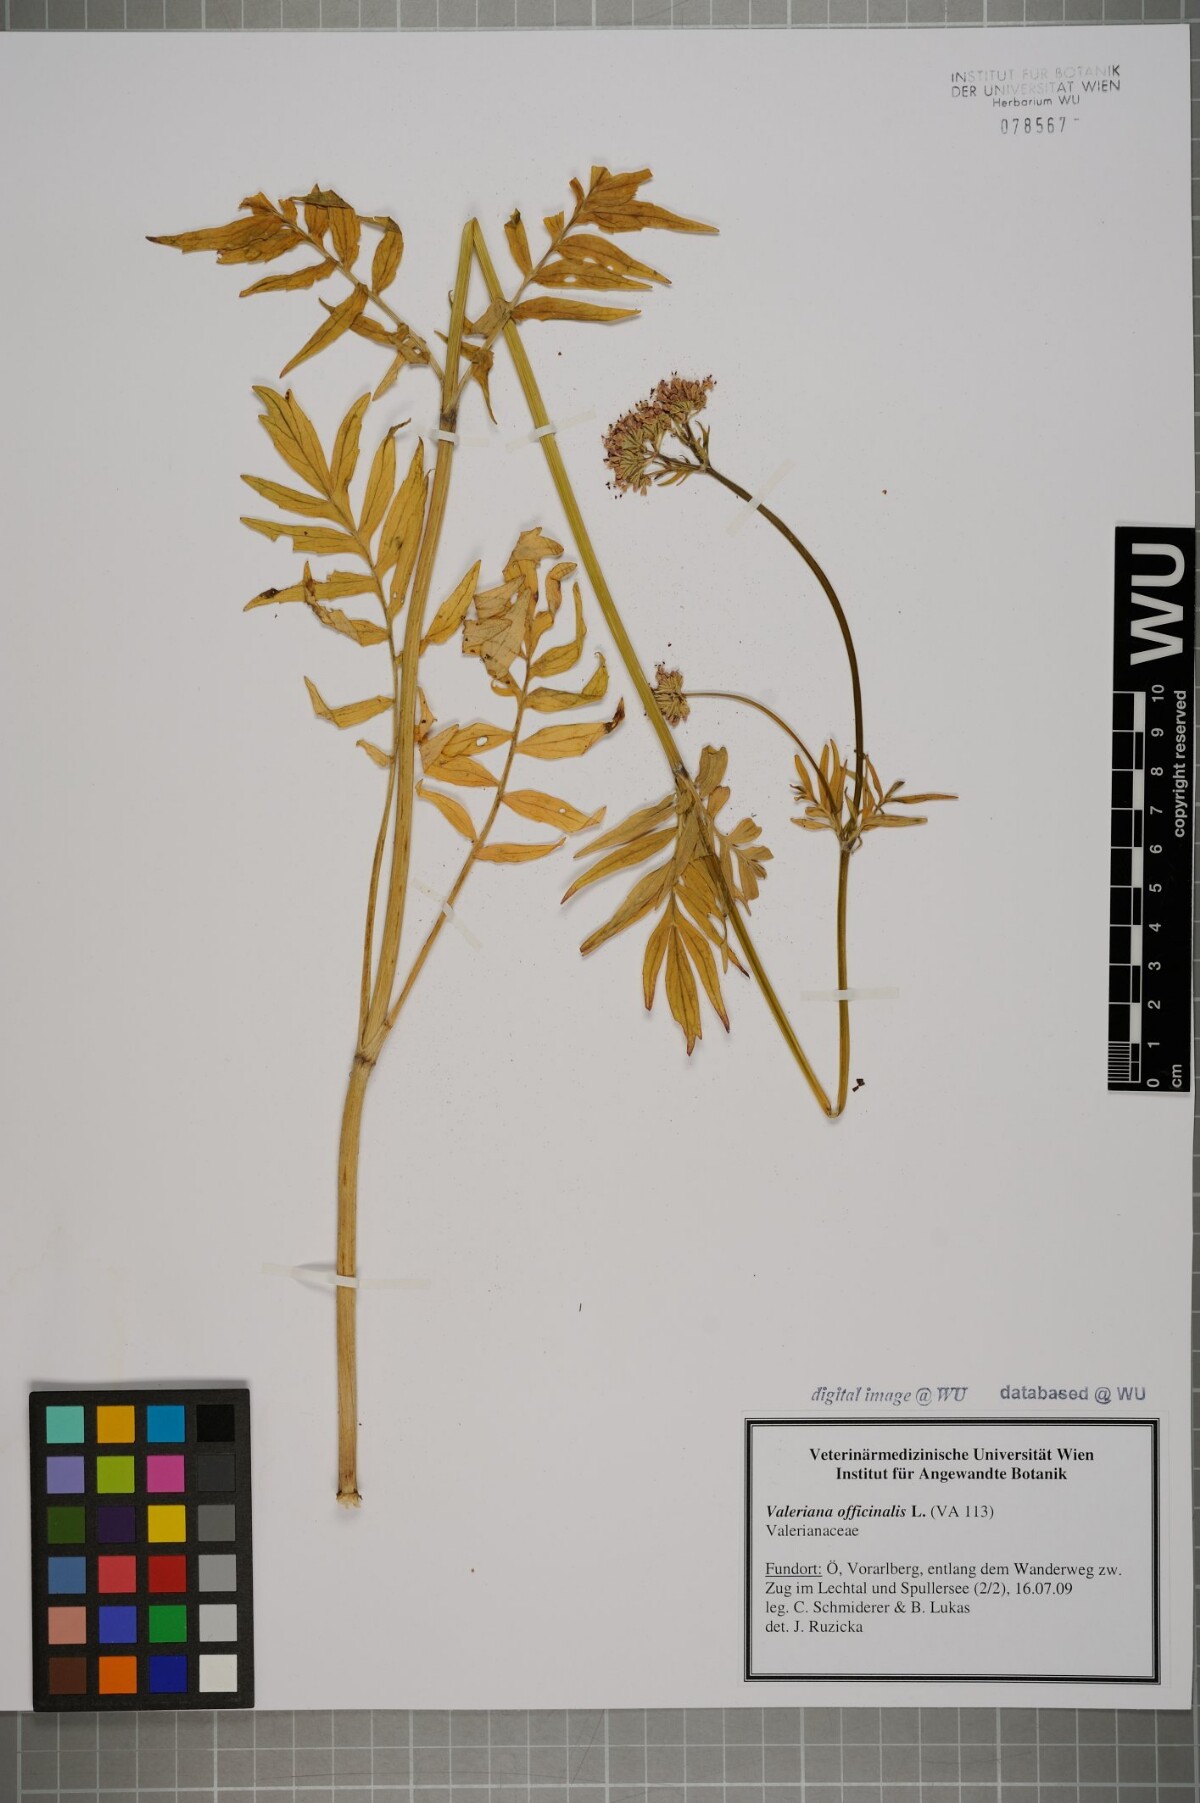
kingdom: Plantae
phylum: Tracheophyta
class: Magnoliopsida
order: Dipsacales
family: Caprifoliaceae
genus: Valeriana
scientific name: Valeriana officinalis
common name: Common valerian
